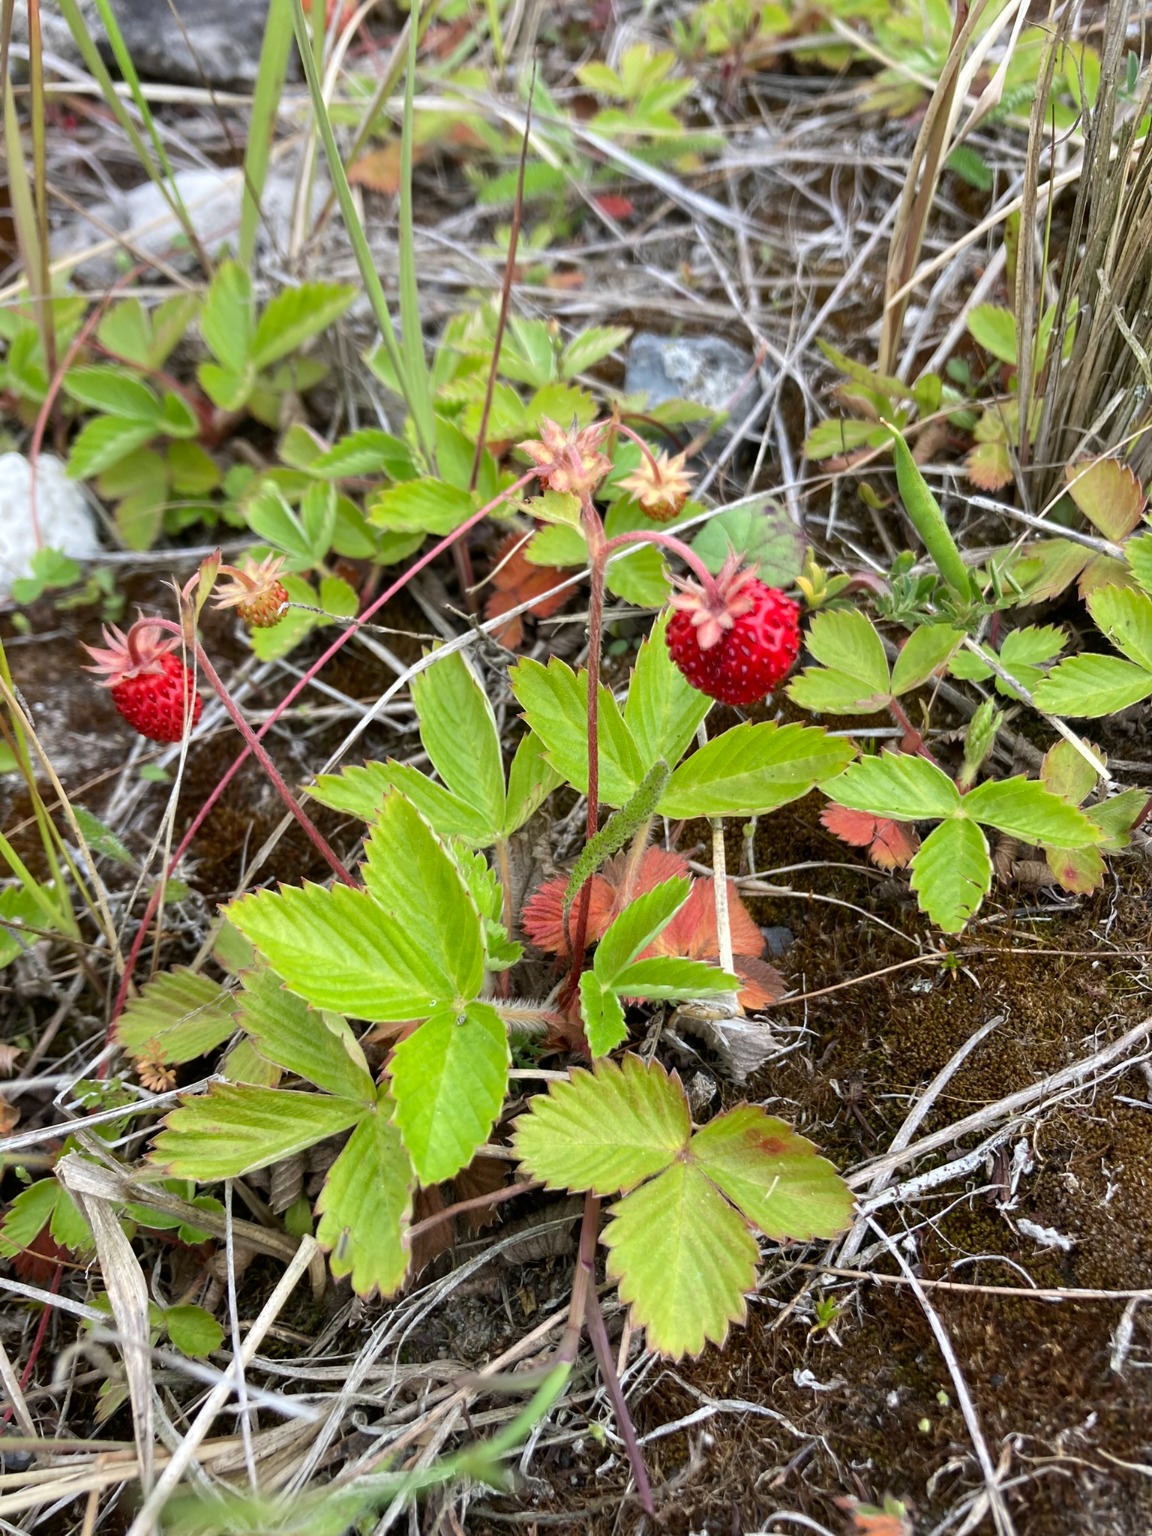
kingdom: Plantae
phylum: Tracheophyta
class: Magnoliopsida
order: Rosales
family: Rosaceae
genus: Fragaria
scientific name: Fragaria vesca
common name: Skov-jordbær
